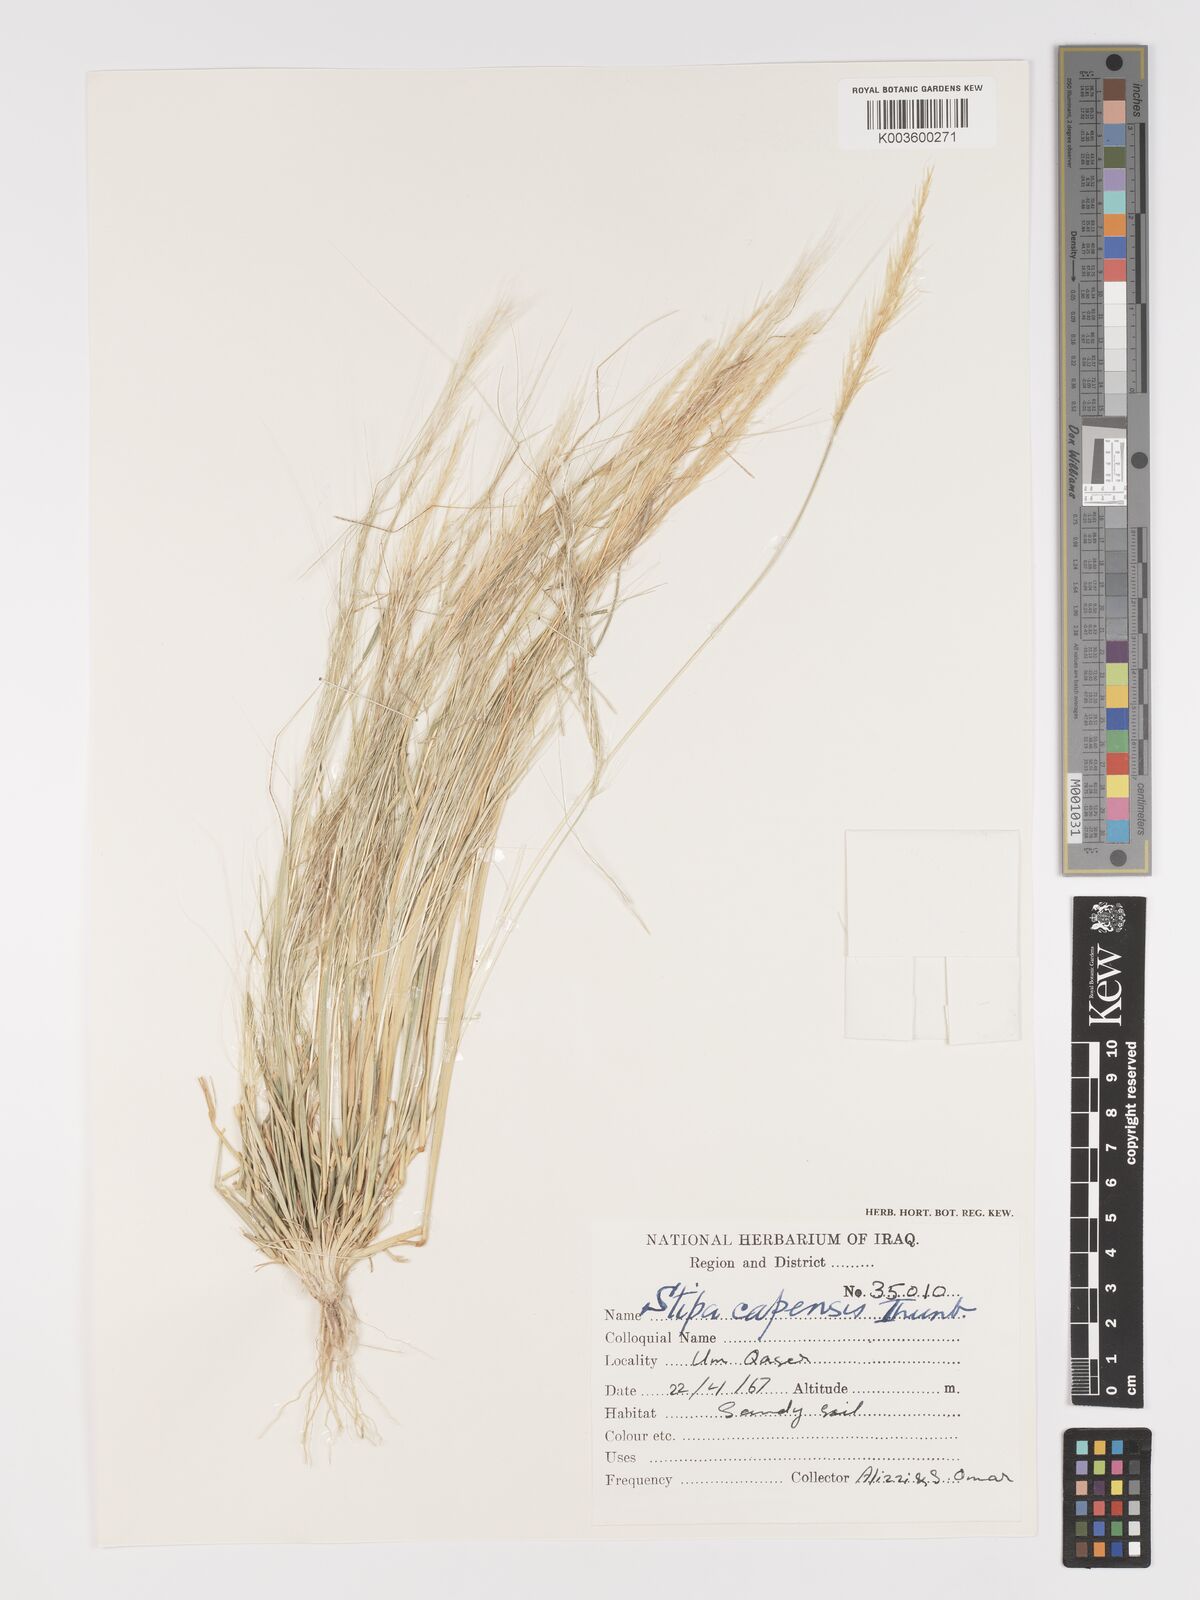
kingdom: Plantae
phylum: Tracheophyta
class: Liliopsida
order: Poales
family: Poaceae
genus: Stipellula
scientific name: Stipellula capensis
